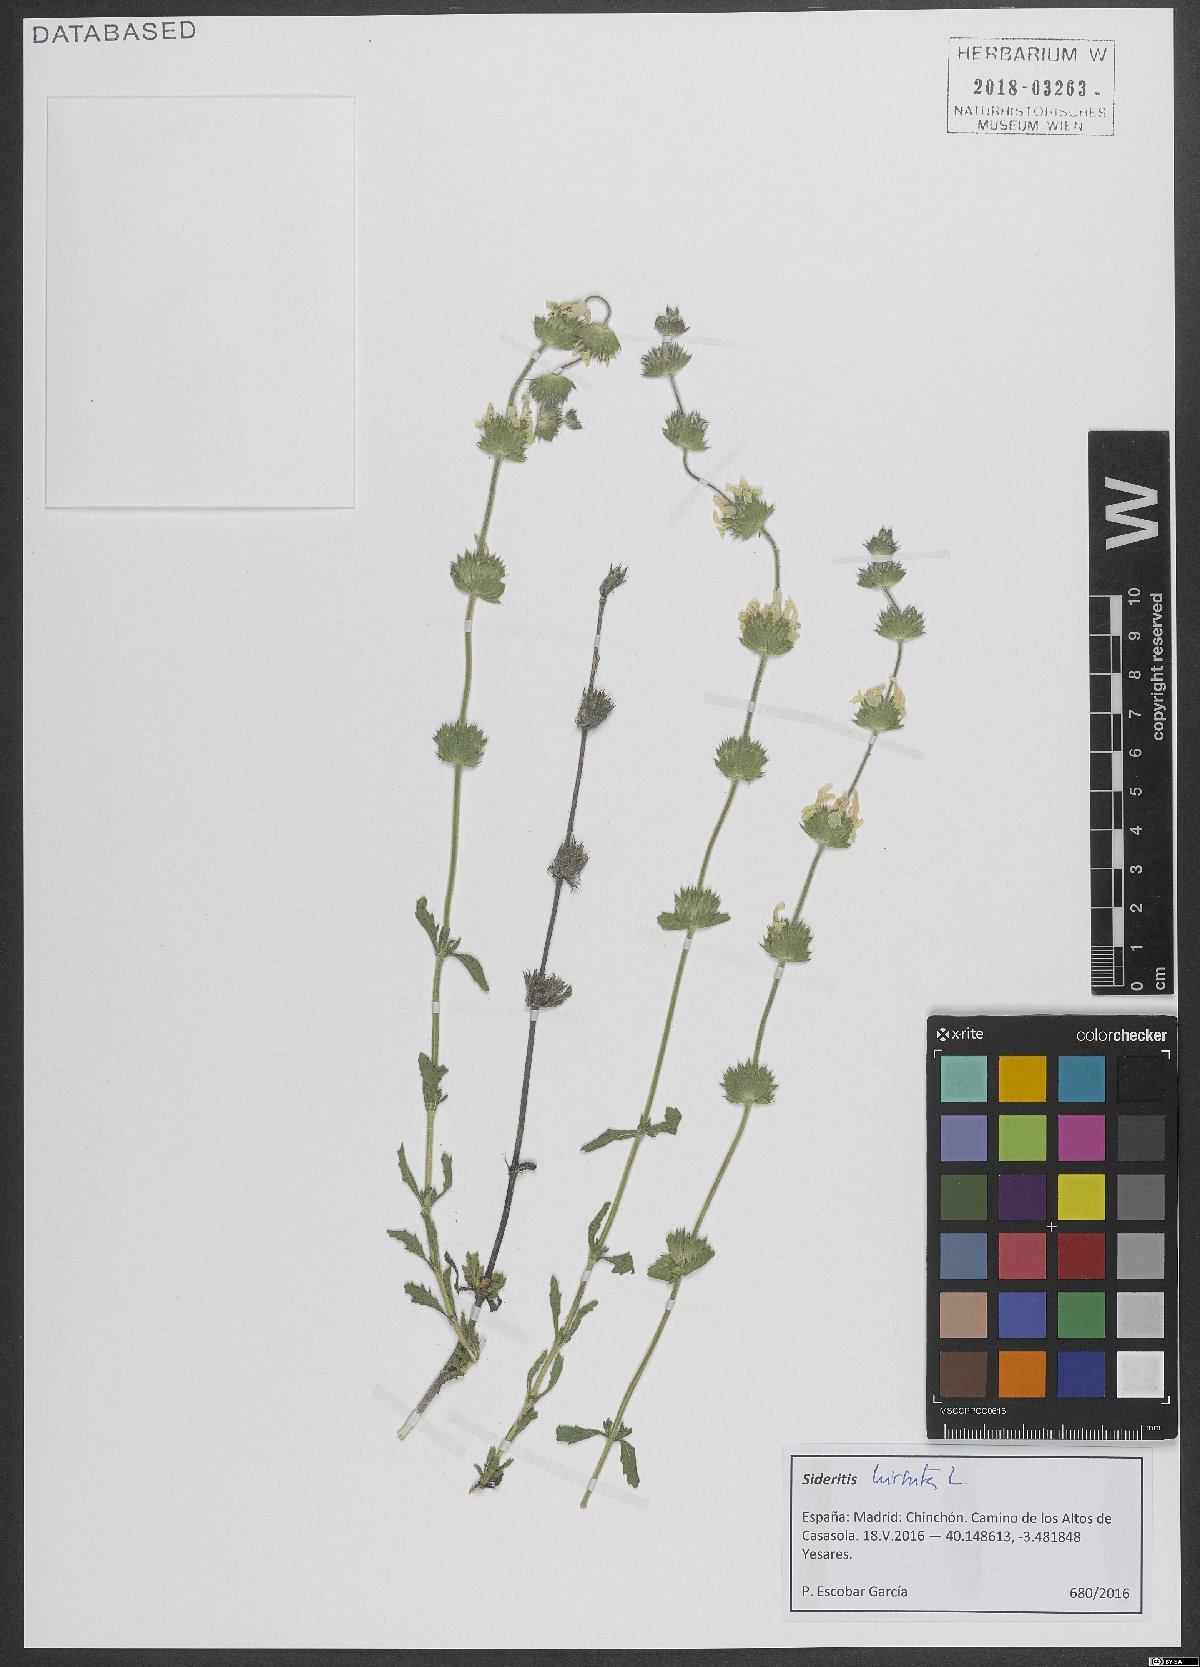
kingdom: Plantae
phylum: Tracheophyta
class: Magnoliopsida
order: Lamiales
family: Lamiaceae
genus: Sideritis
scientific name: Sideritis hirsuta
